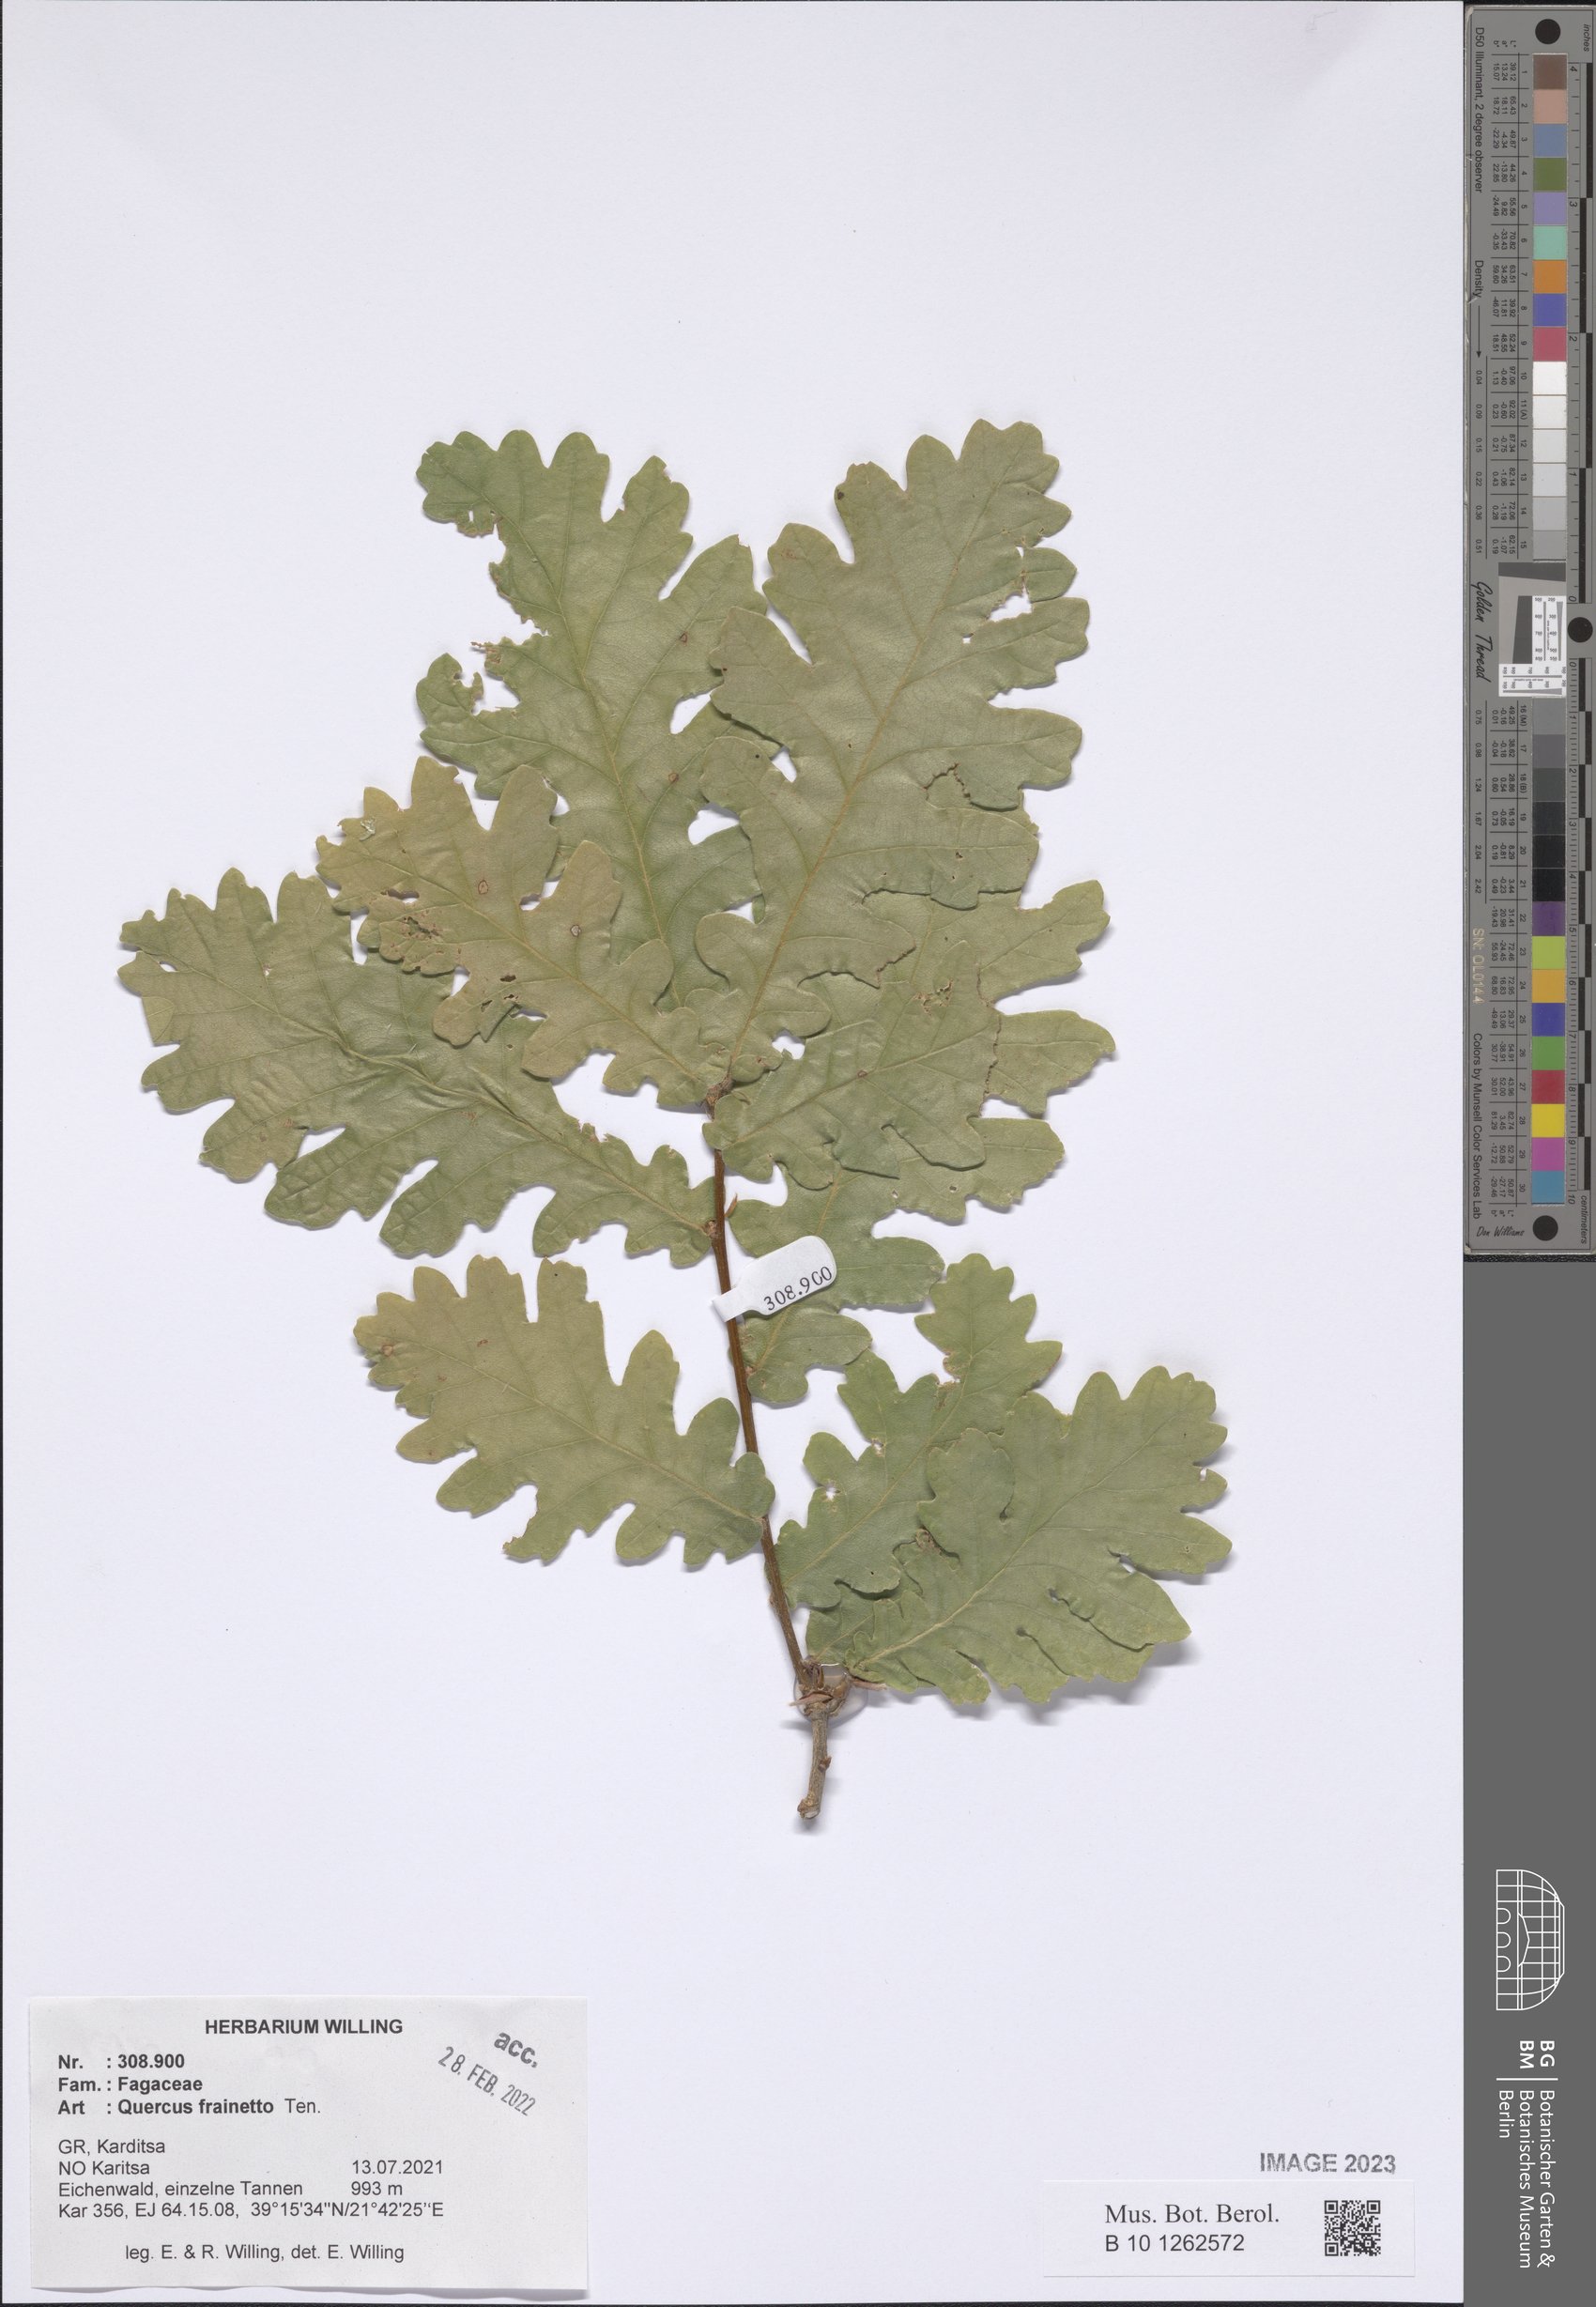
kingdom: Plantae
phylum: Tracheophyta
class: Magnoliopsida
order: Fagales
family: Fagaceae
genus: Quercus
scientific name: Quercus conferta
